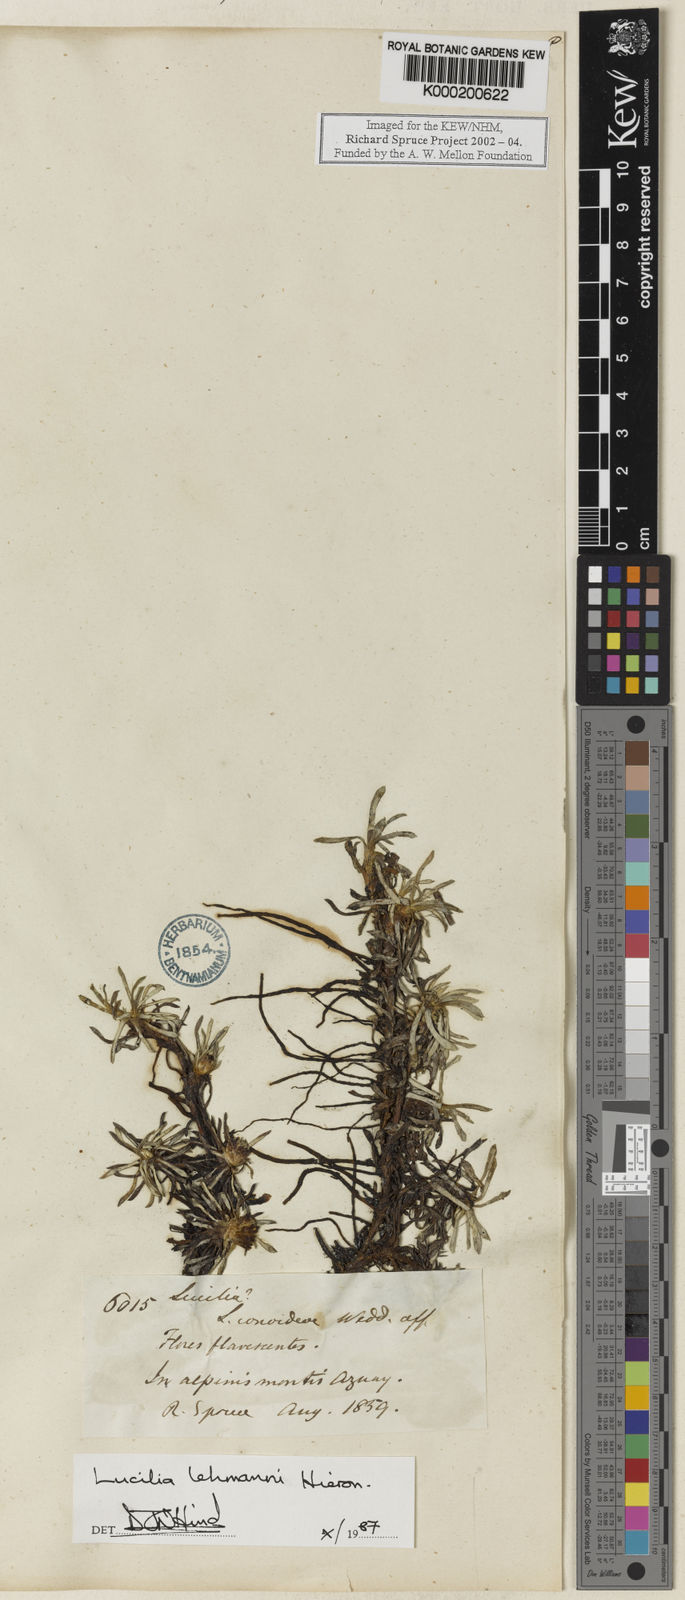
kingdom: Plantae
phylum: Tracheophyta
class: Magnoliopsida
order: Asterales
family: Asteraceae
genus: Mniodes
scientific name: Mniodes kunthiana
